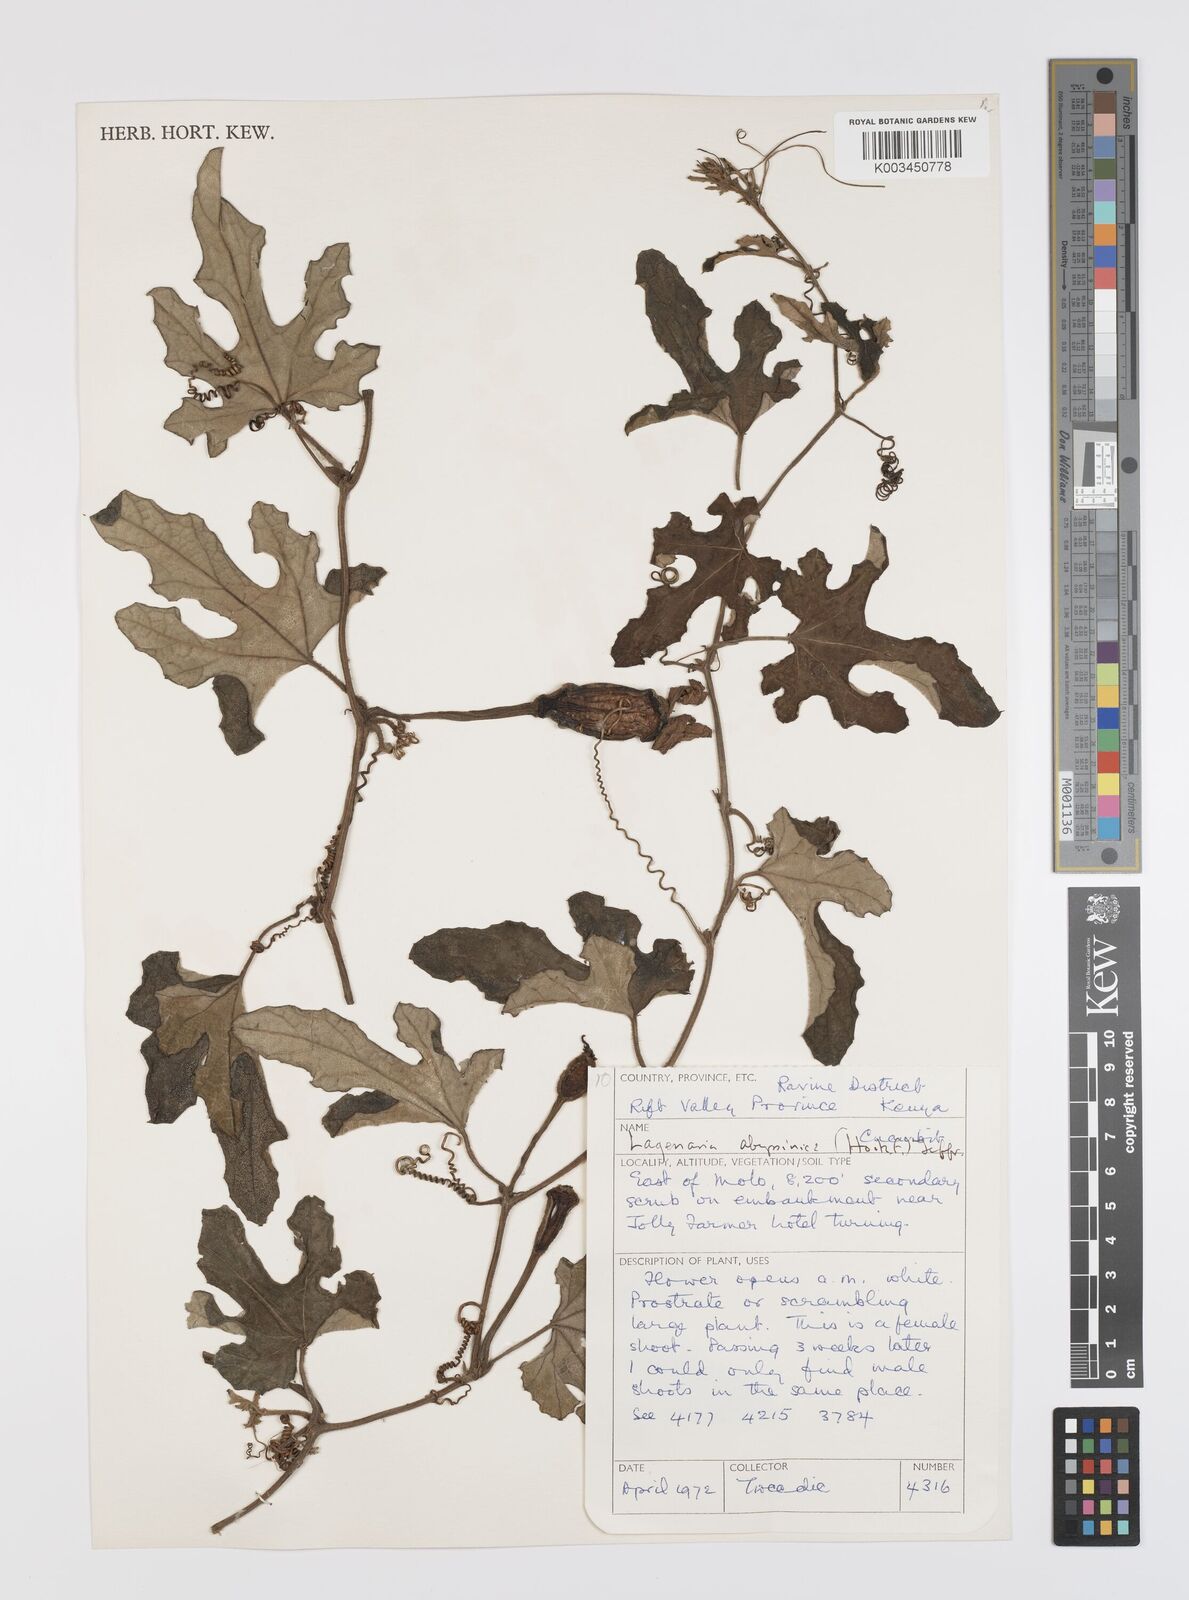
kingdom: Plantae
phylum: Tracheophyta
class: Magnoliopsida
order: Cucurbitales
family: Cucurbitaceae
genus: Lagenaria
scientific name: Lagenaria abyssinica
